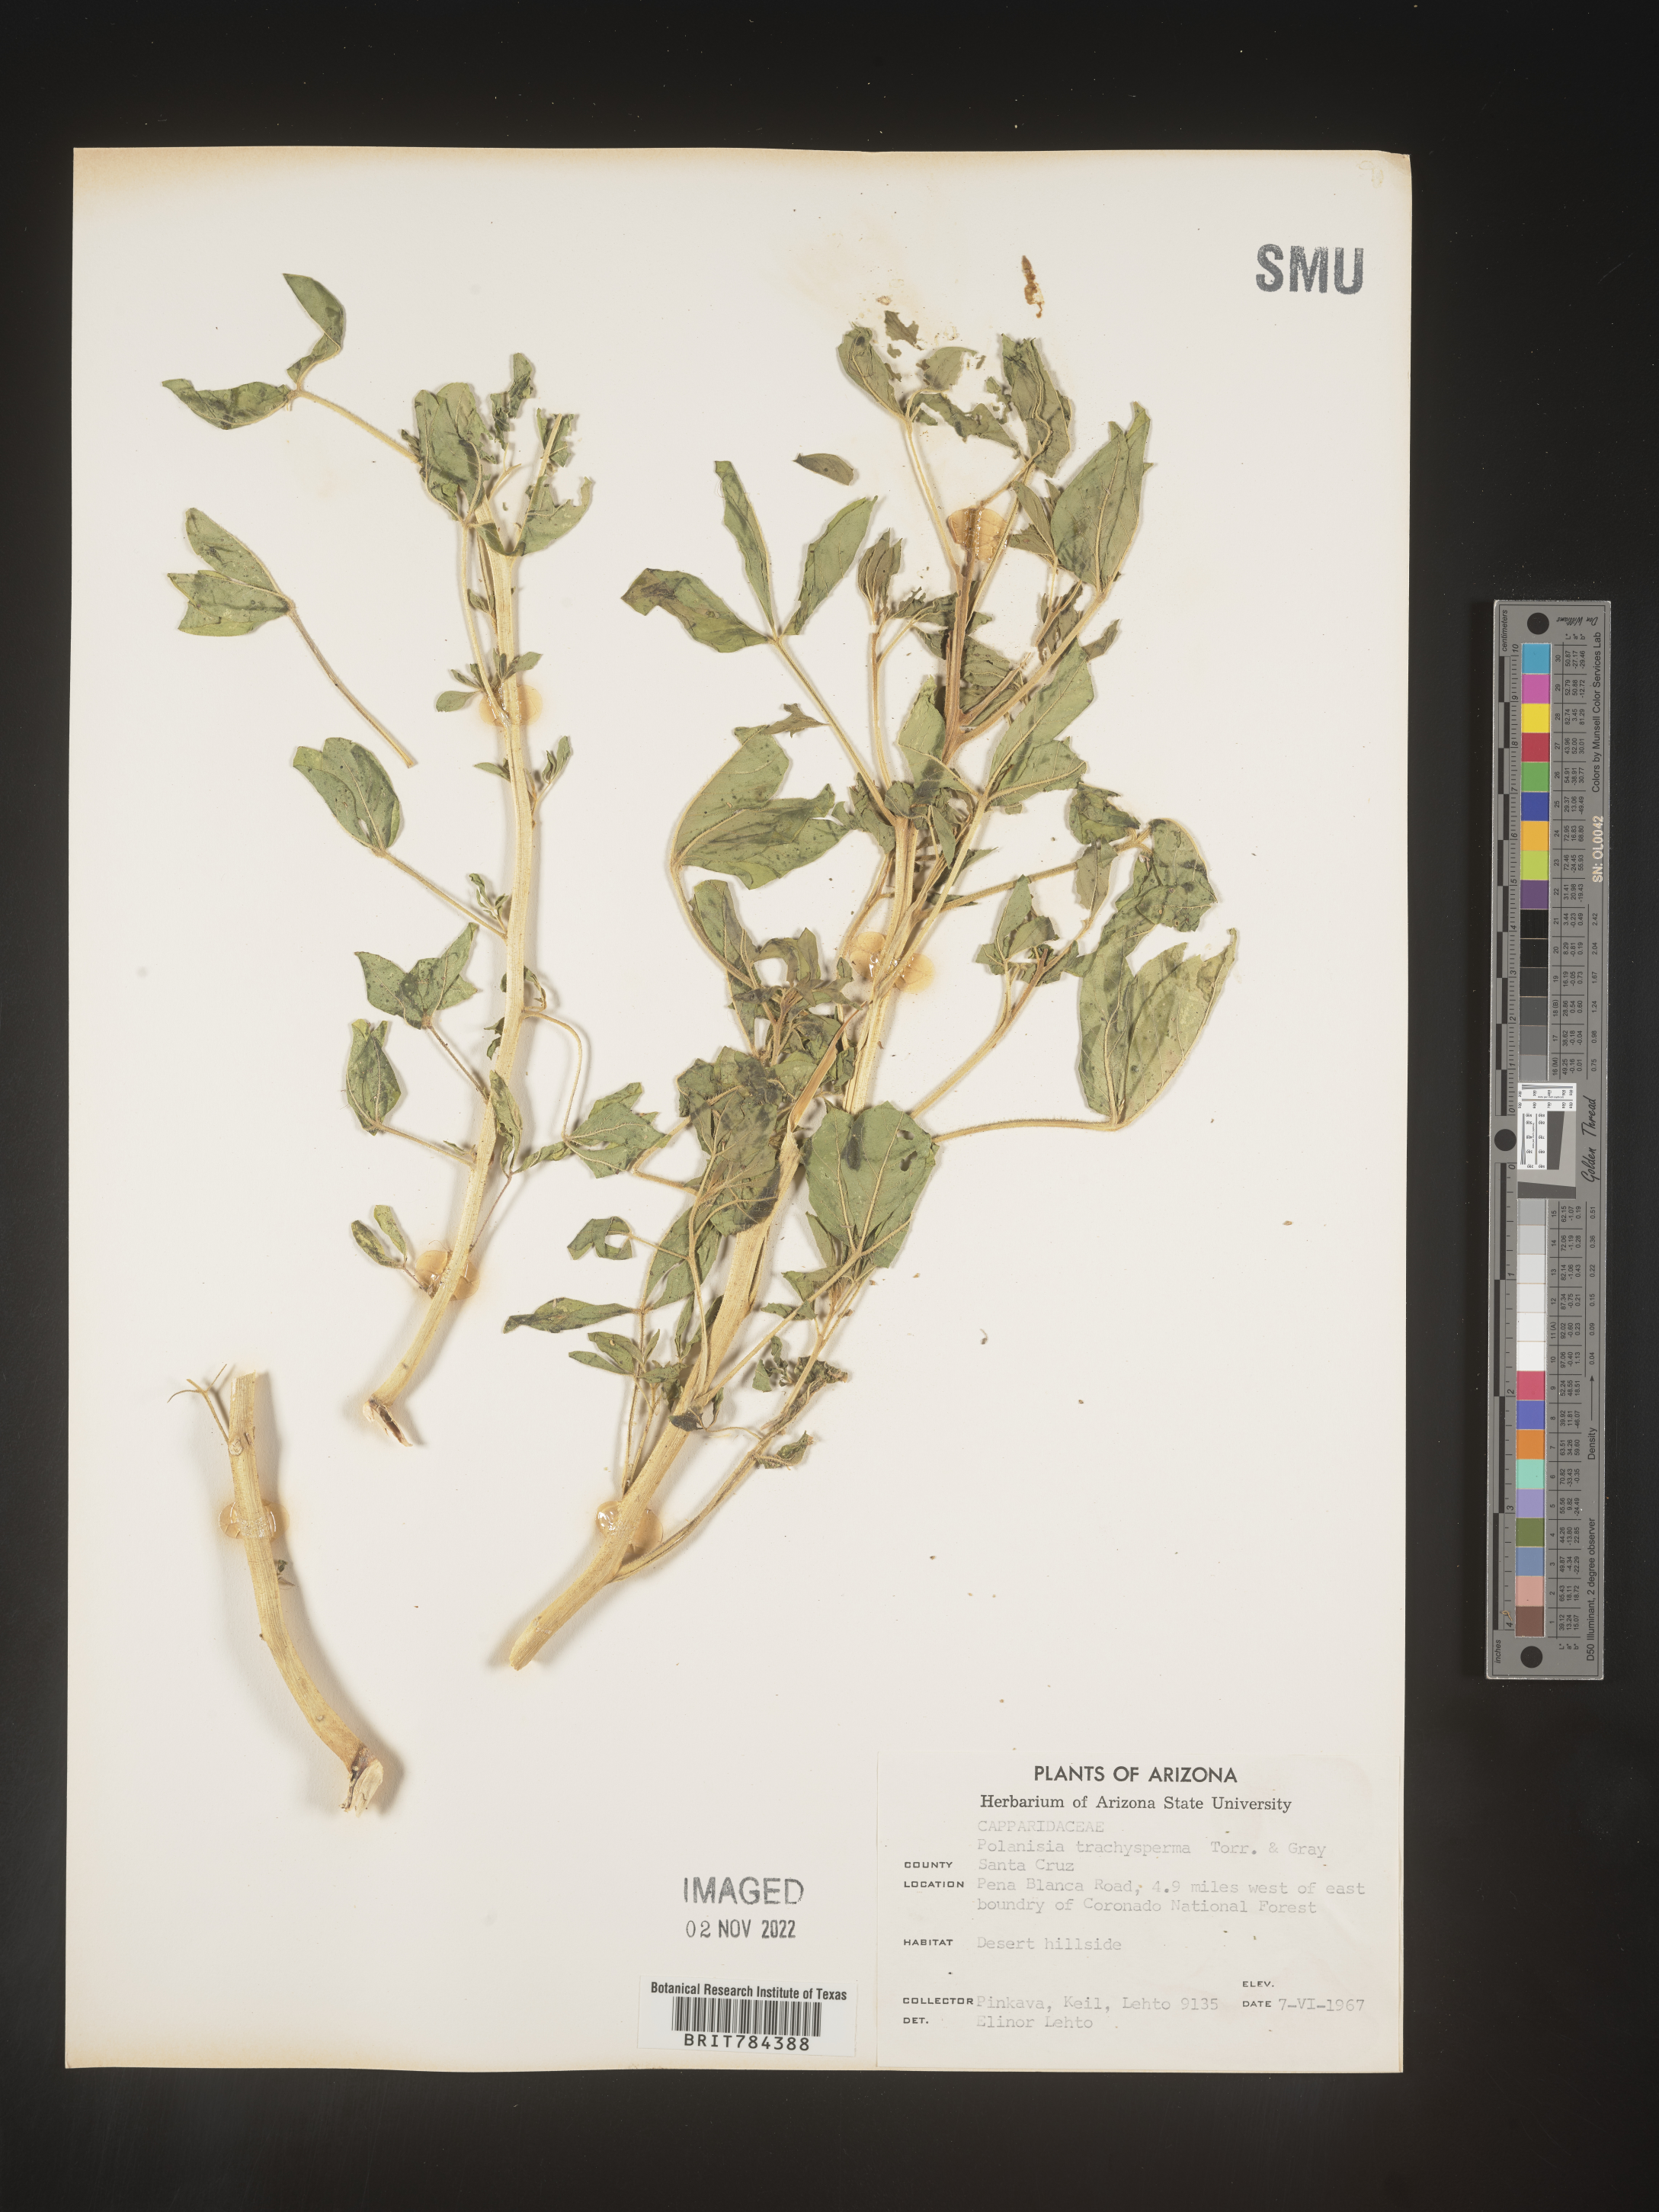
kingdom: Plantae
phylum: Tracheophyta
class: Magnoliopsida
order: Brassicales
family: Cleomaceae
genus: Polanisia
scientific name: Polanisia dodecandra
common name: Clammyweed
